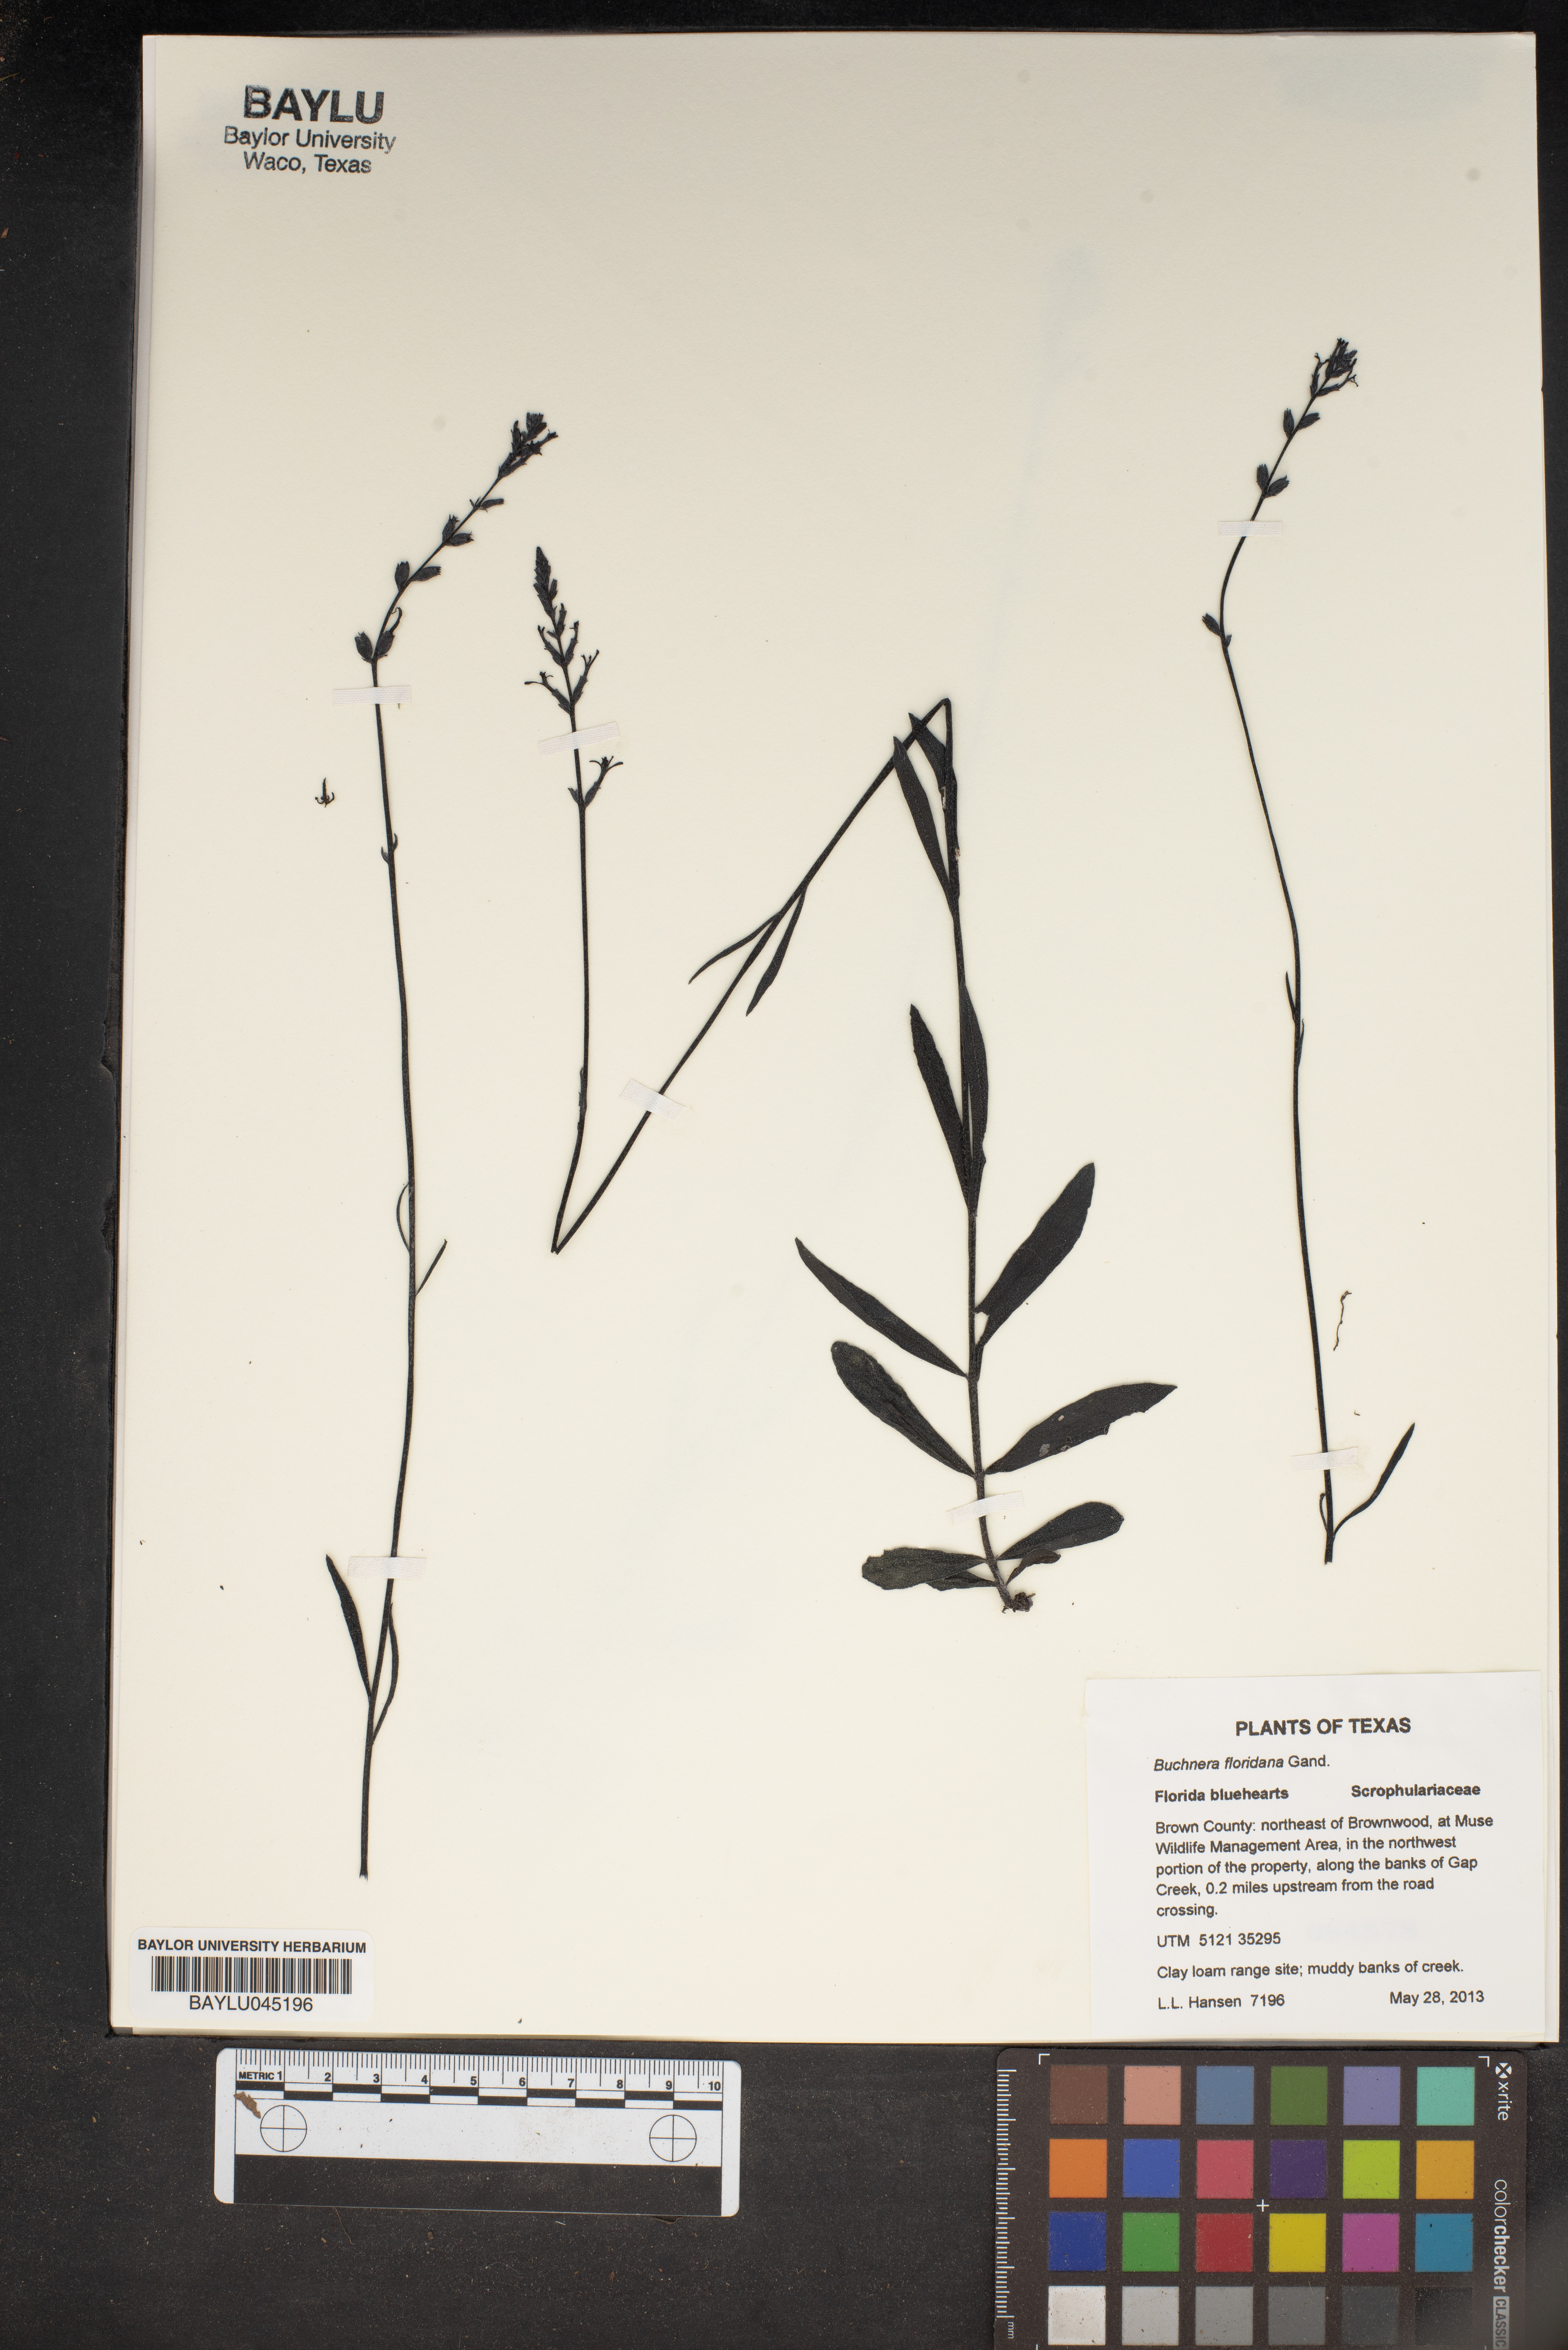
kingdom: Plantae
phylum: Tracheophyta
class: Magnoliopsida
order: Lamiales
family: Orobanchaceae
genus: Buchnera
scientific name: Buchnera floridana
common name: Florida bluehearts
